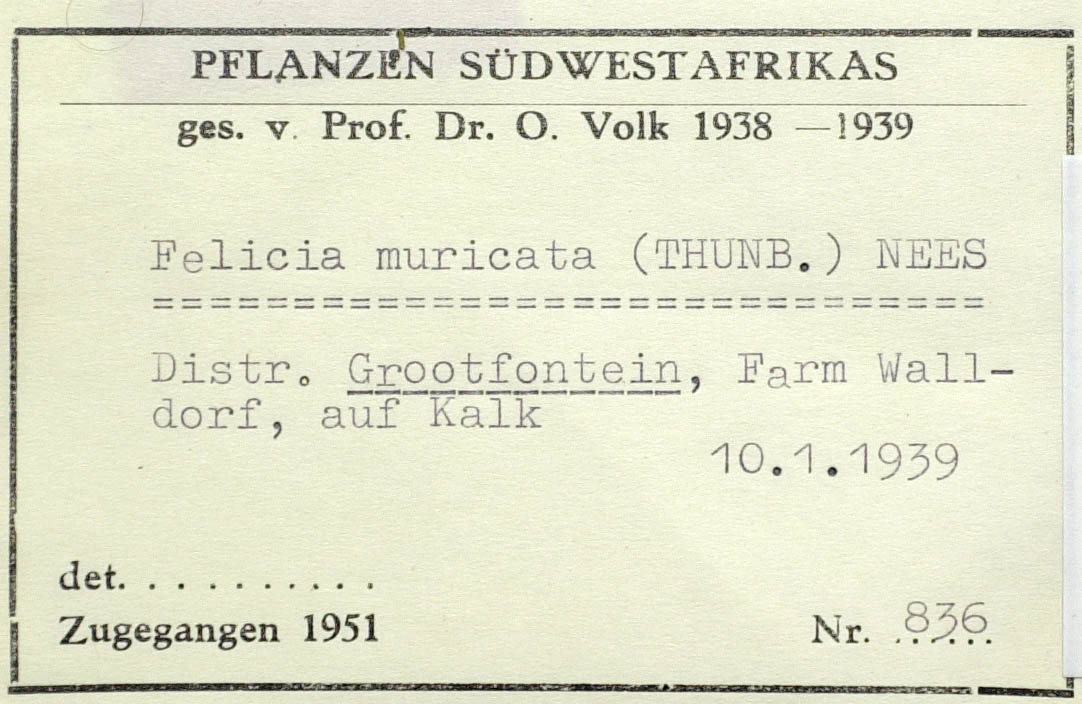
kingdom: Plantae
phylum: Tracheophyta
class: Magnoliopsida
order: Asterales
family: Asteraceae
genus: Felicia
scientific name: Felicia muricata
